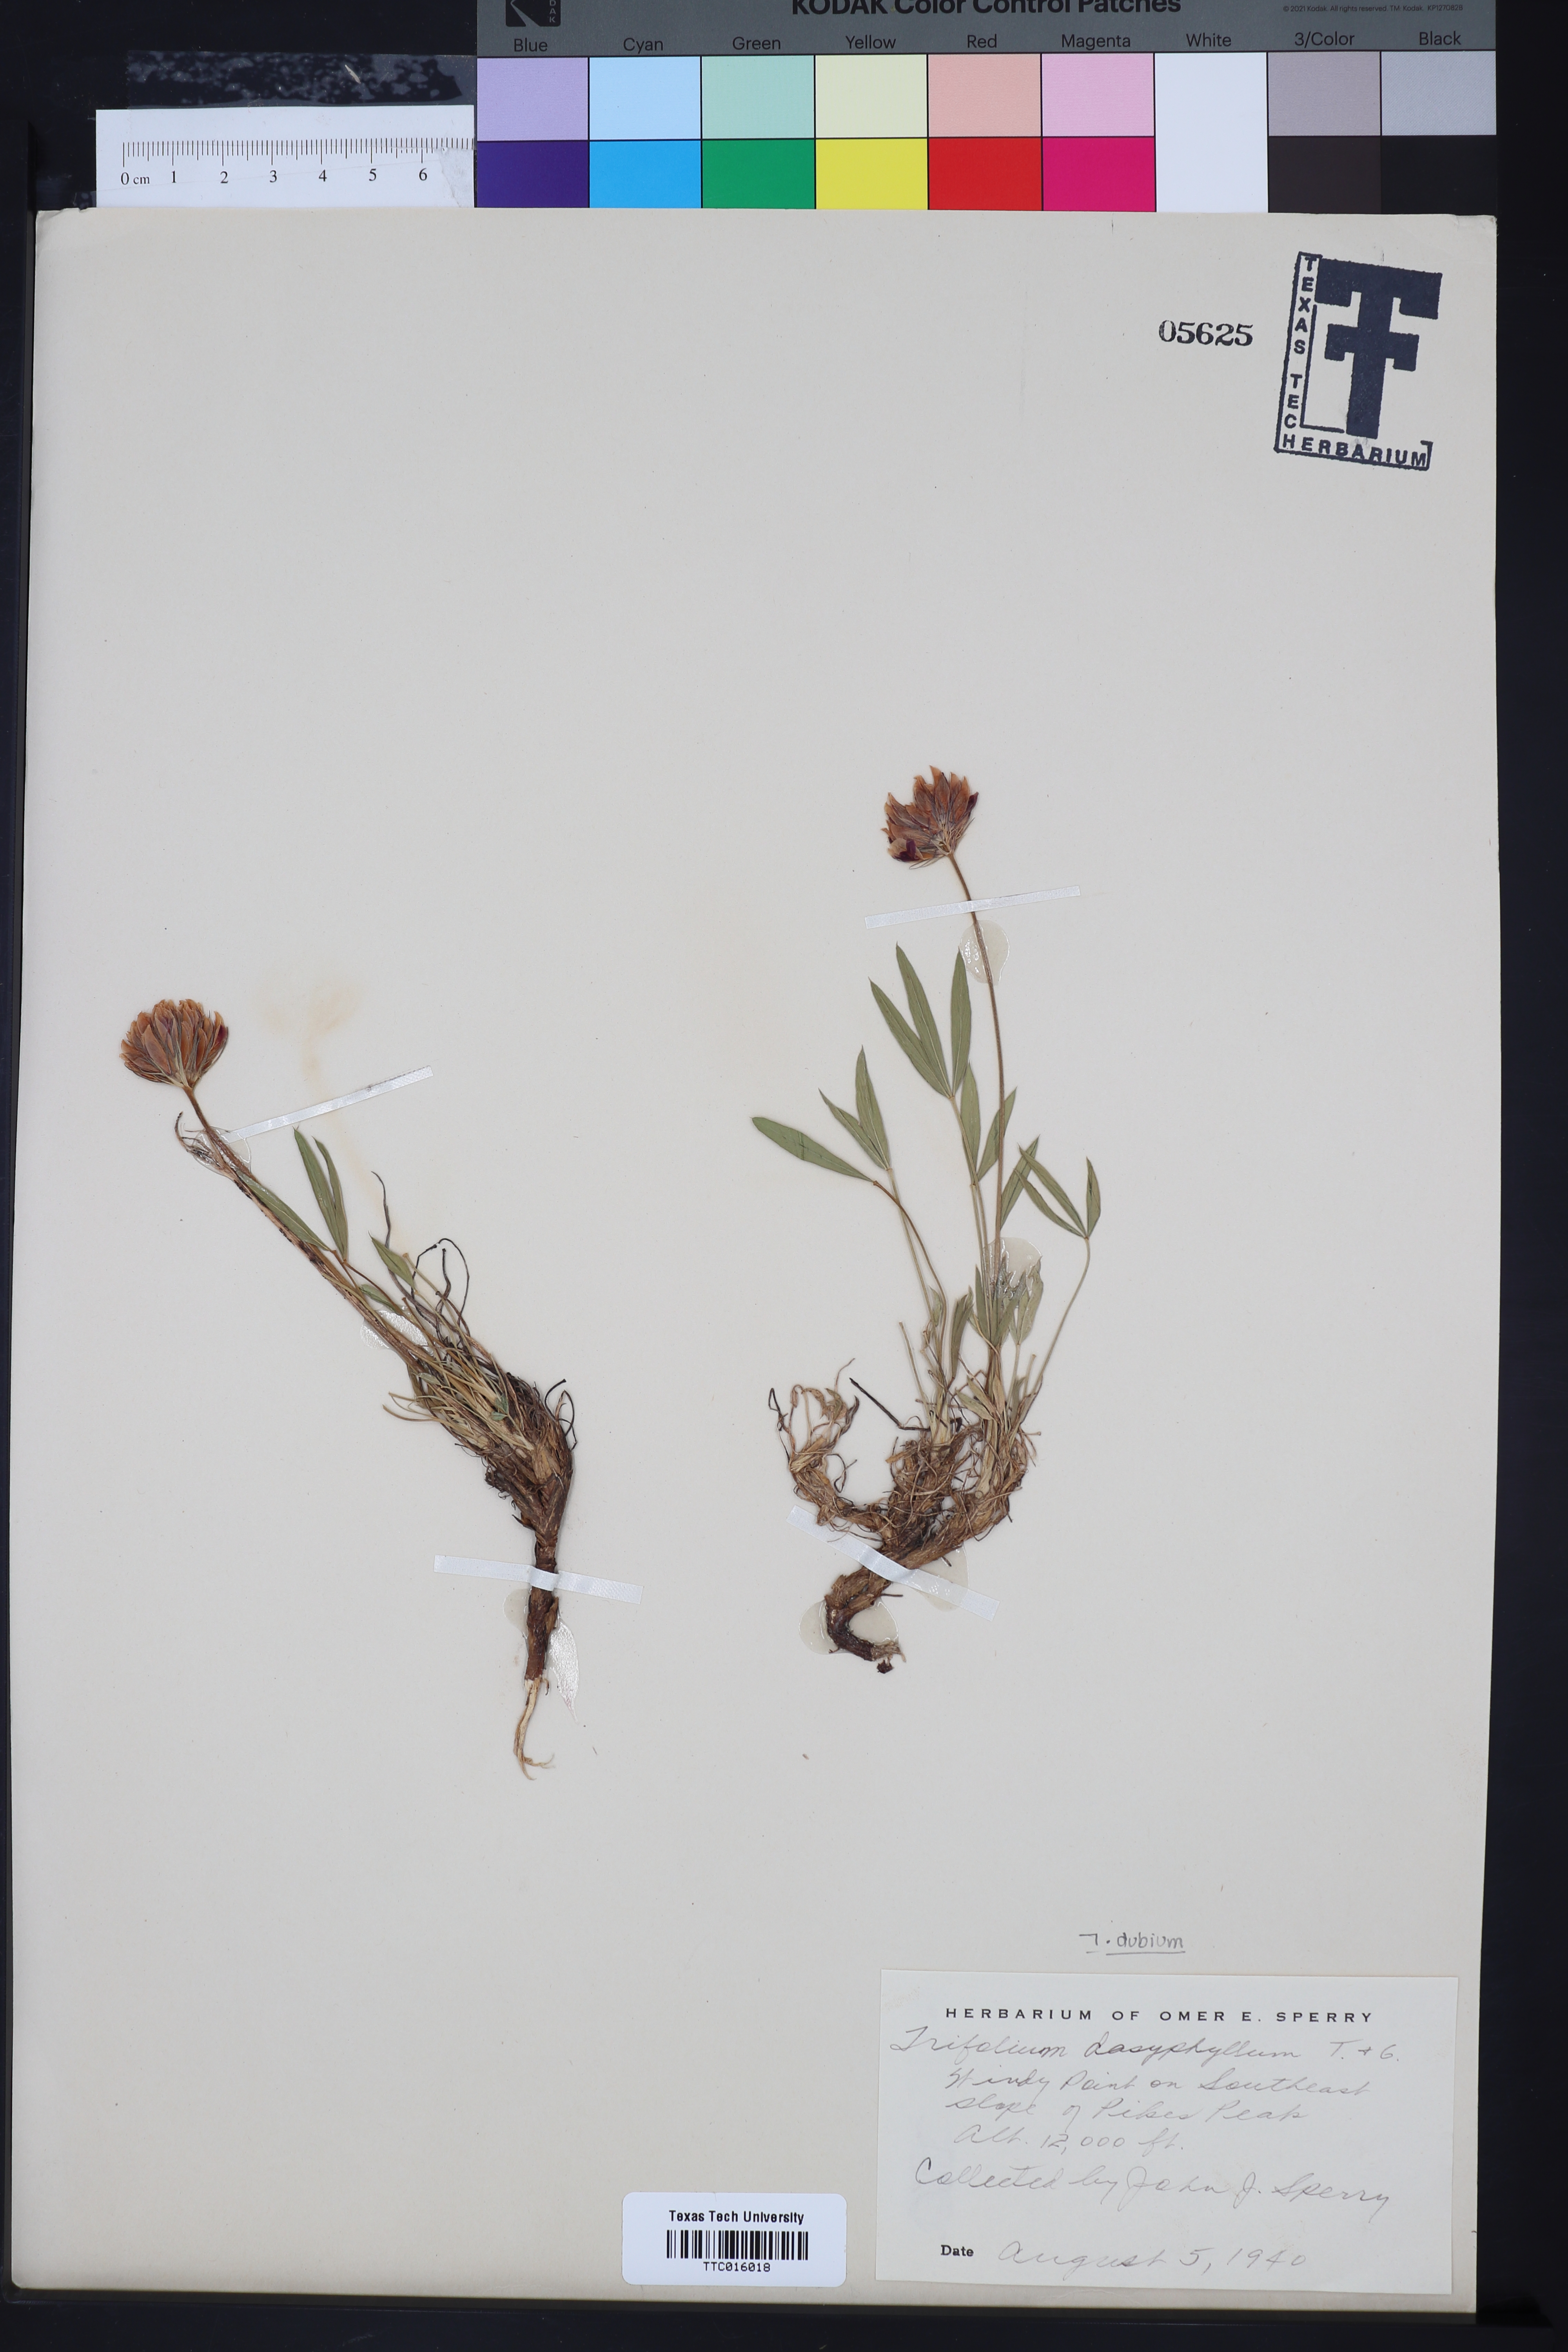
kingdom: Plantae
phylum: Tracheophyta
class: Magnoliopsida
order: Fabales
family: Fabaceae
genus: Trifolium
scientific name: Trifolium dasyphyllum
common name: Whip-root clover
